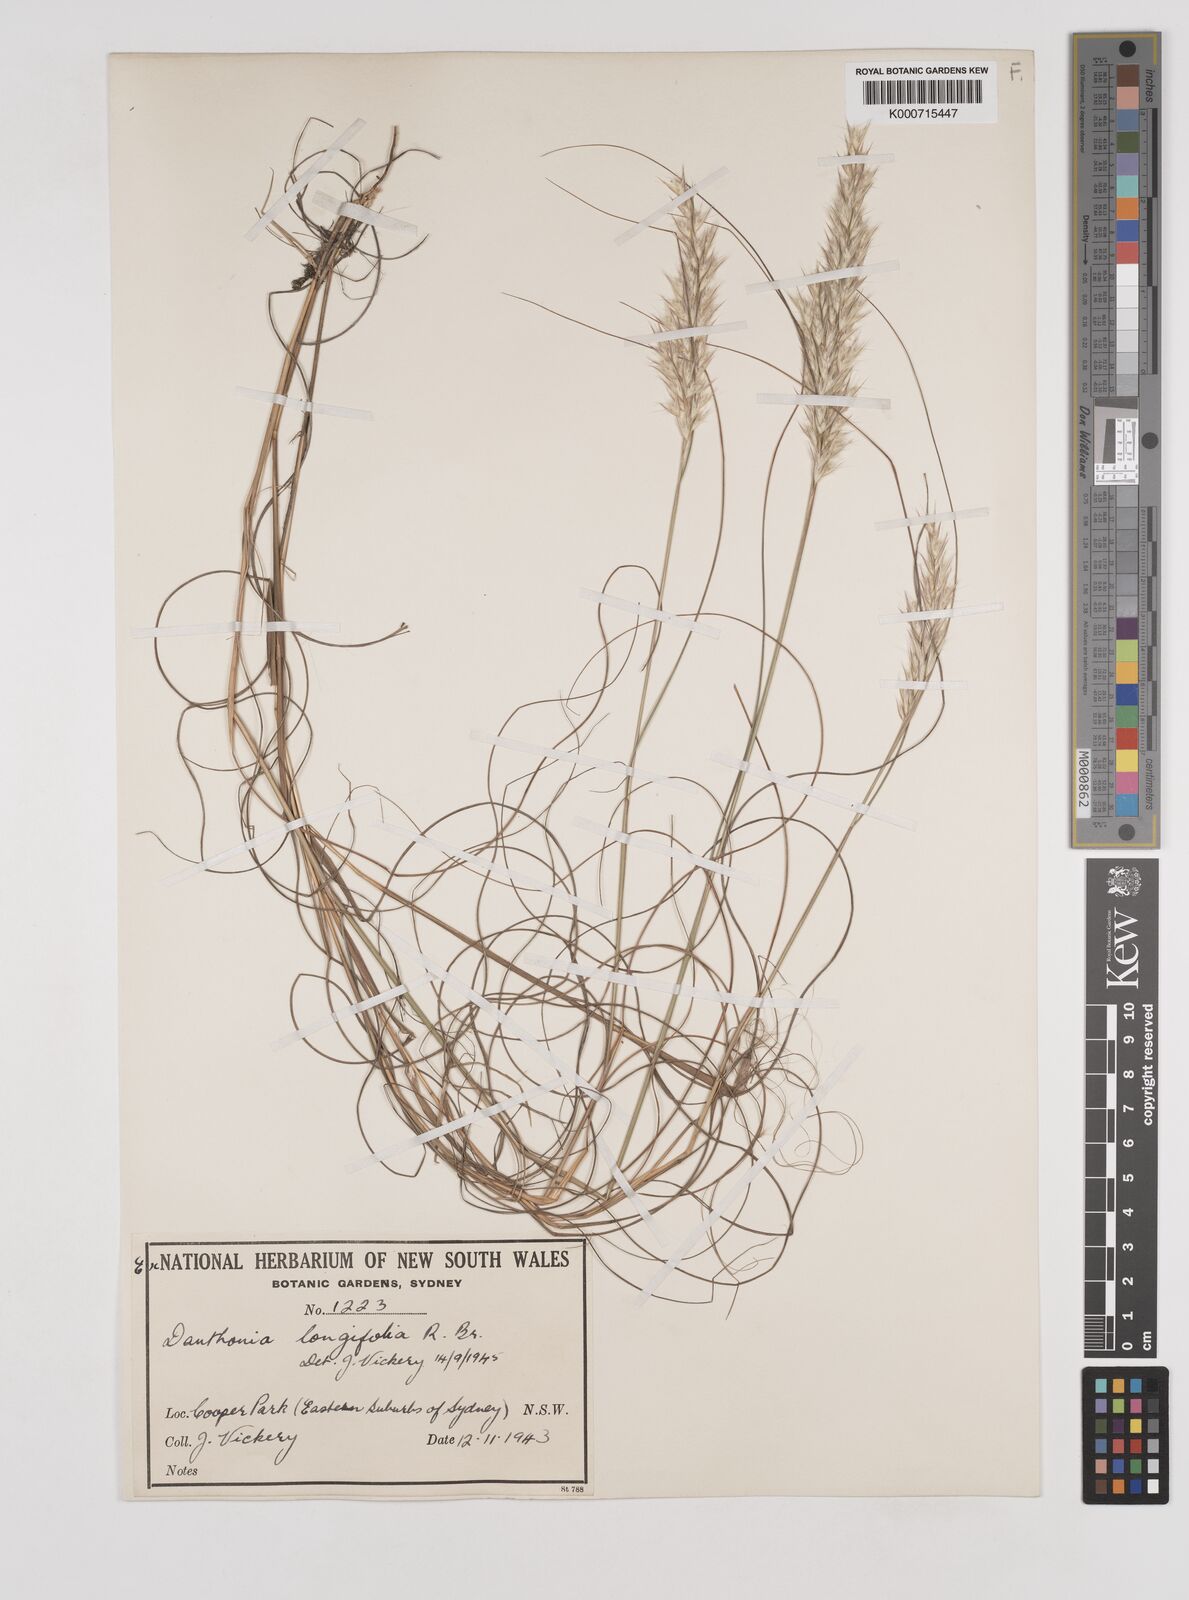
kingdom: Plantae
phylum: Tracheophyta
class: Liliopsida
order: Poales
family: Poaceae
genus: Rytidosperma
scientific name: Rytidosperma longifolium
